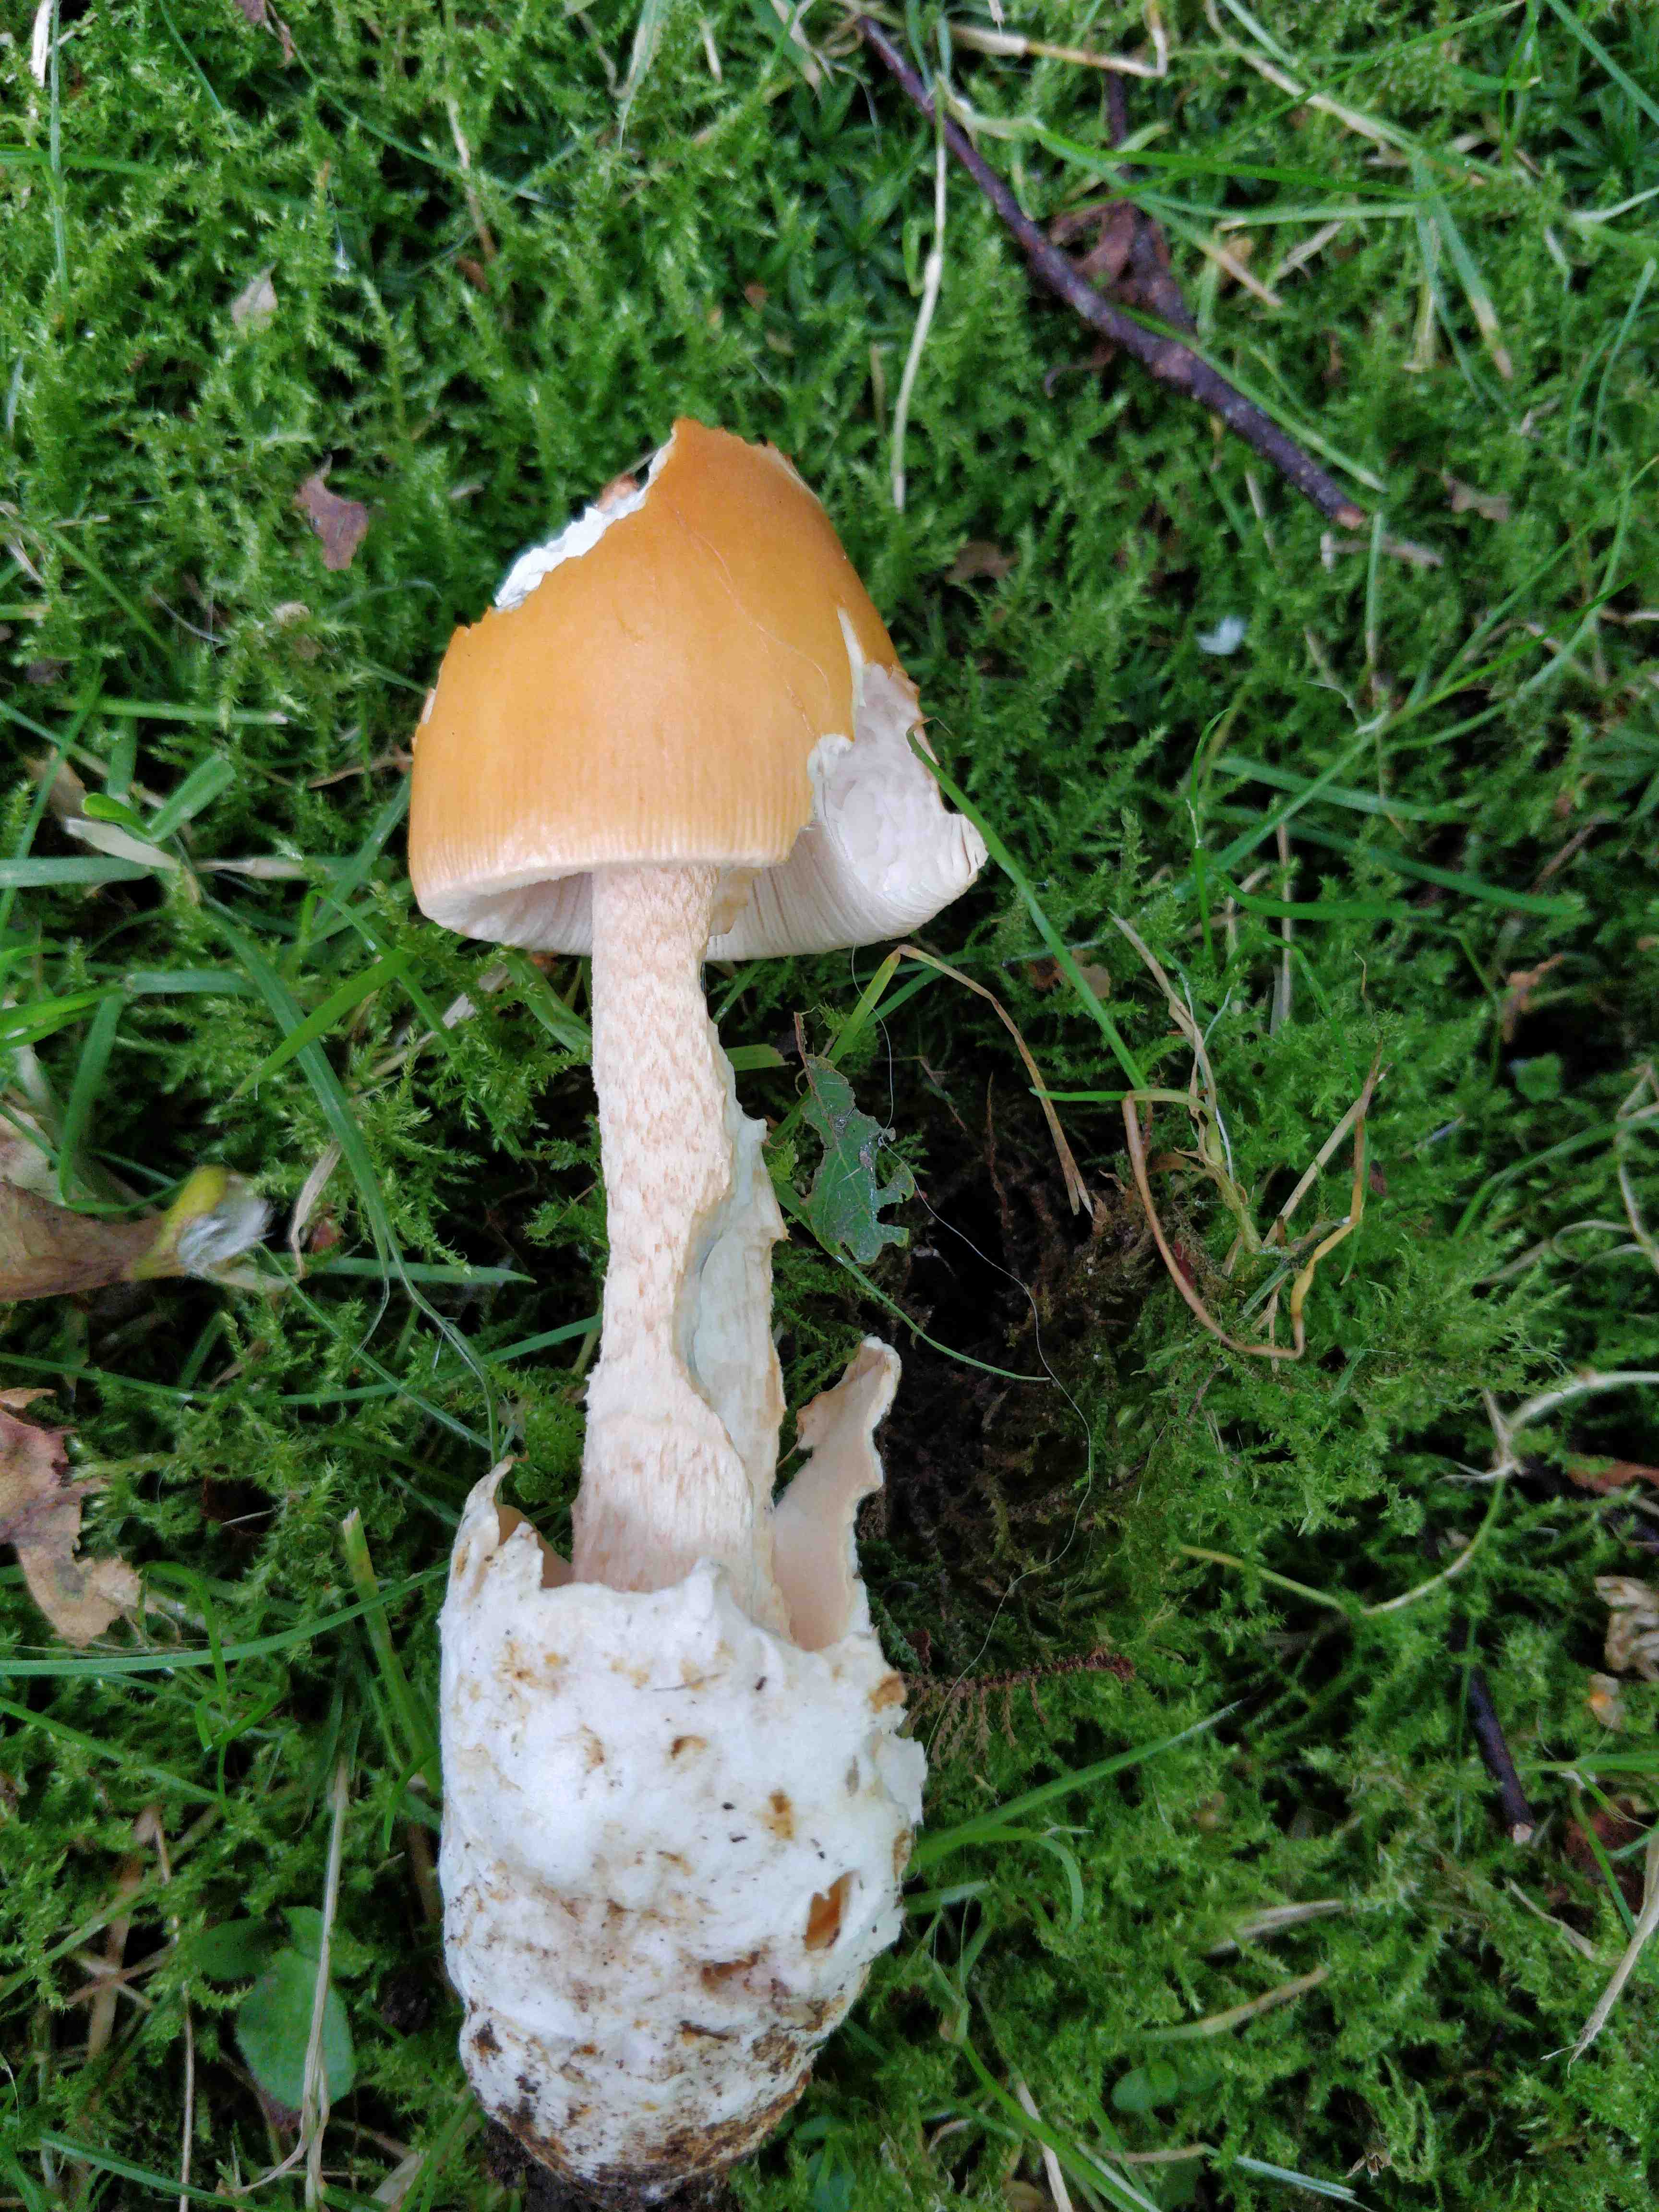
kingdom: Fungi
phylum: Basidiomycota
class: Agaricomycetes
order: Agaricales
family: Amanitaceae
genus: Amanita
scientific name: Amanita crocea
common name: gylden kam-fluesvamp
